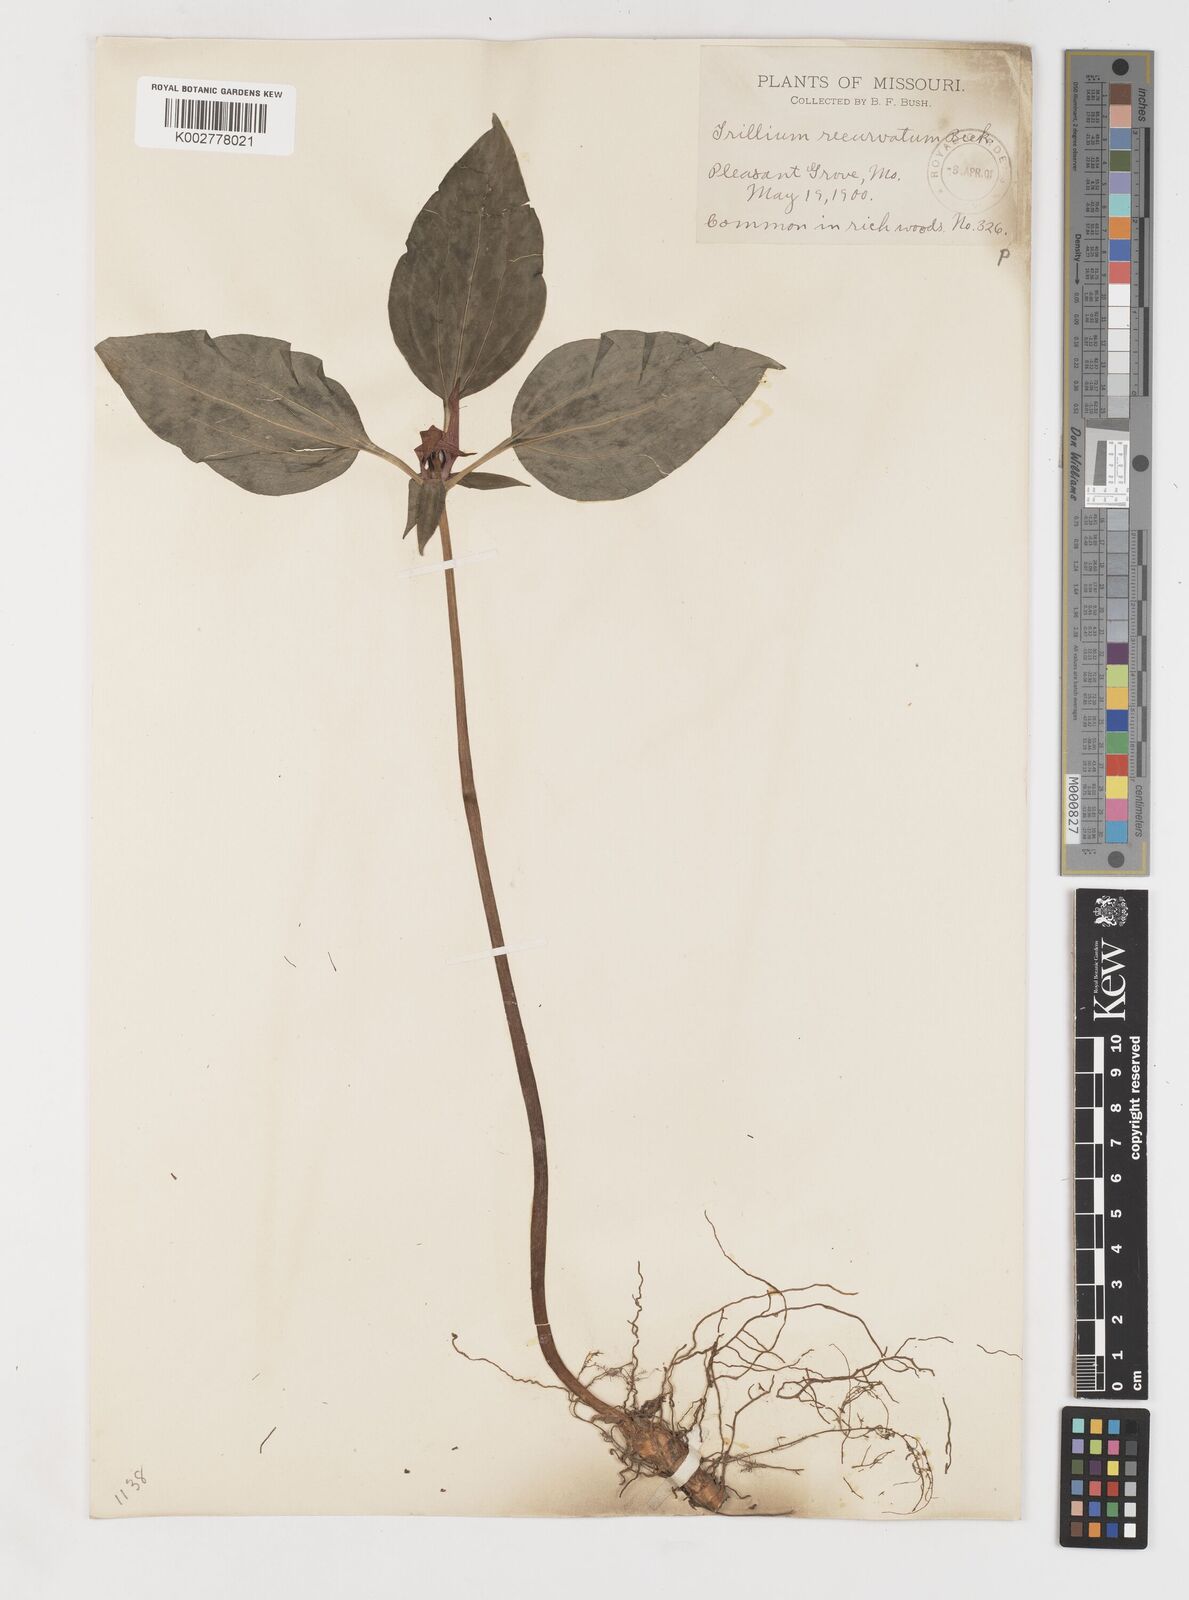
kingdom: Plantae
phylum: Tracheophyta
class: Liliopsida
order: Liliales
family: Melanthiaceae
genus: Trillium
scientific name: Trillium recurvatum
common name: Bloody butcher
